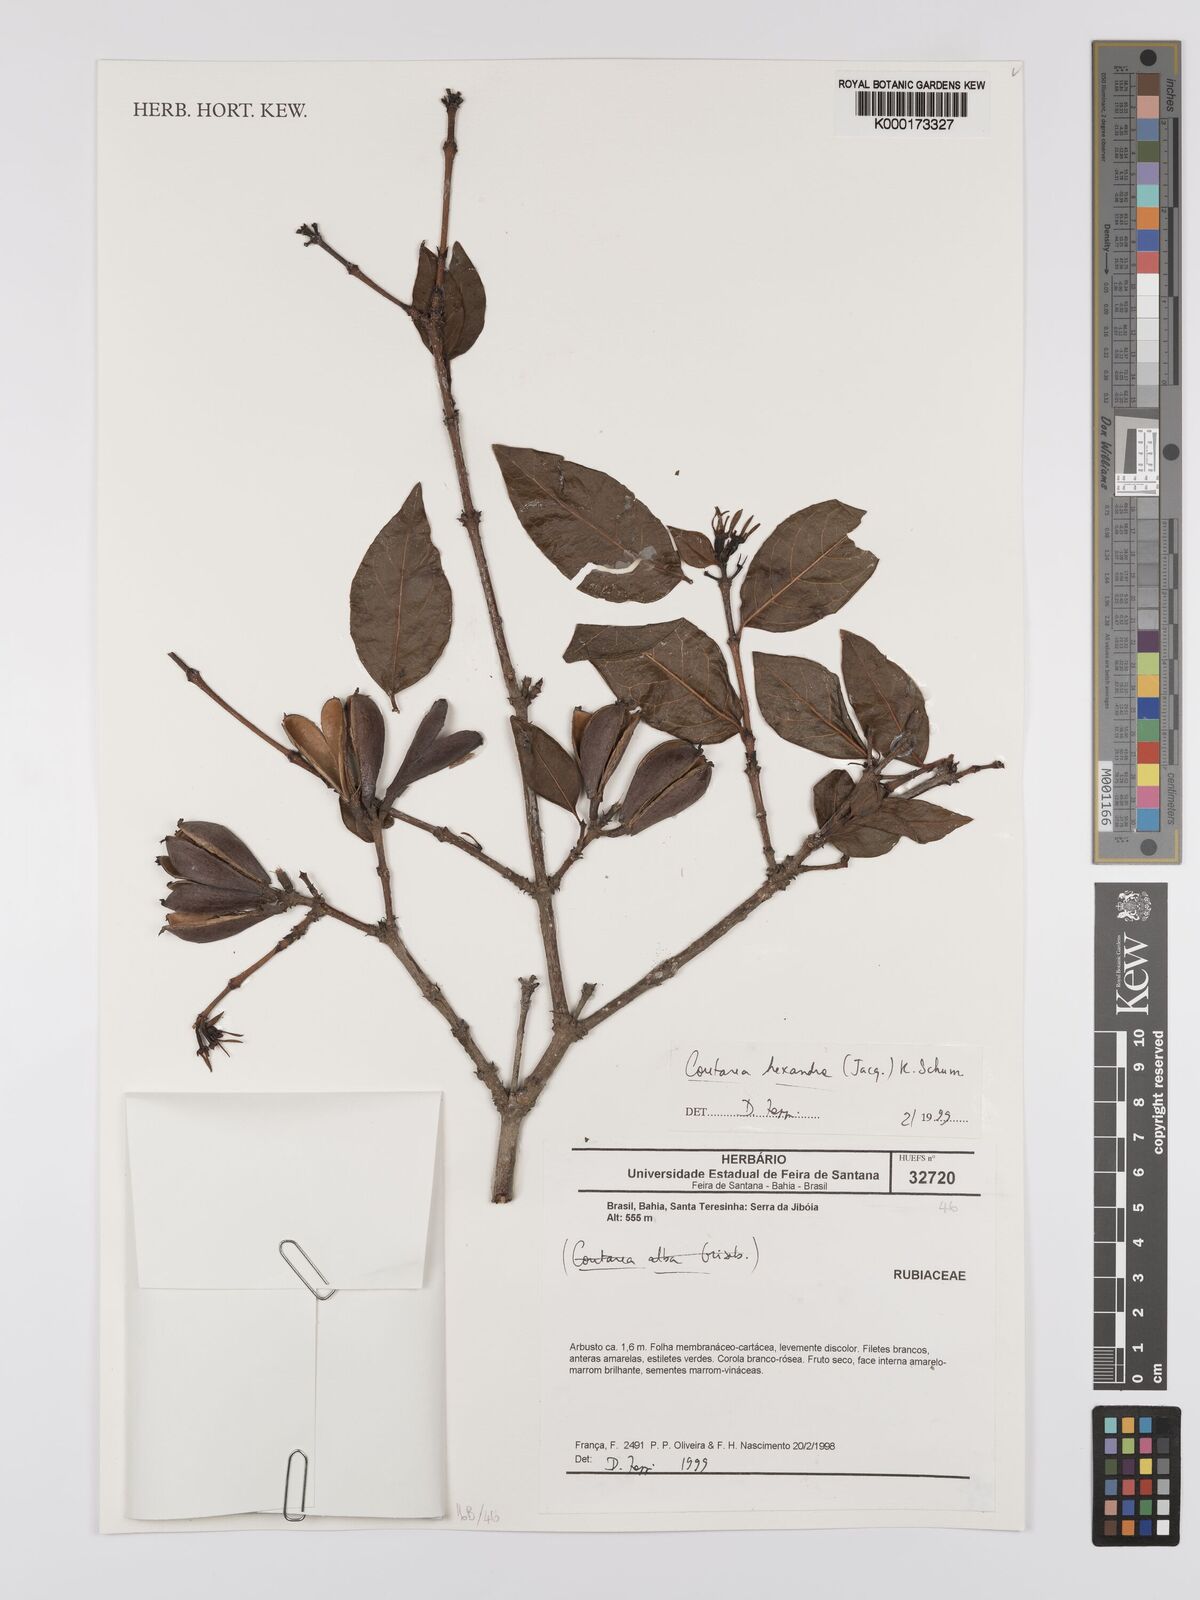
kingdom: Plantae
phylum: Tracheophyta
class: Magnoliopsida
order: Gentianales
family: Rubiaceae
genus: Coutarea
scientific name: Coutarea hexandra
